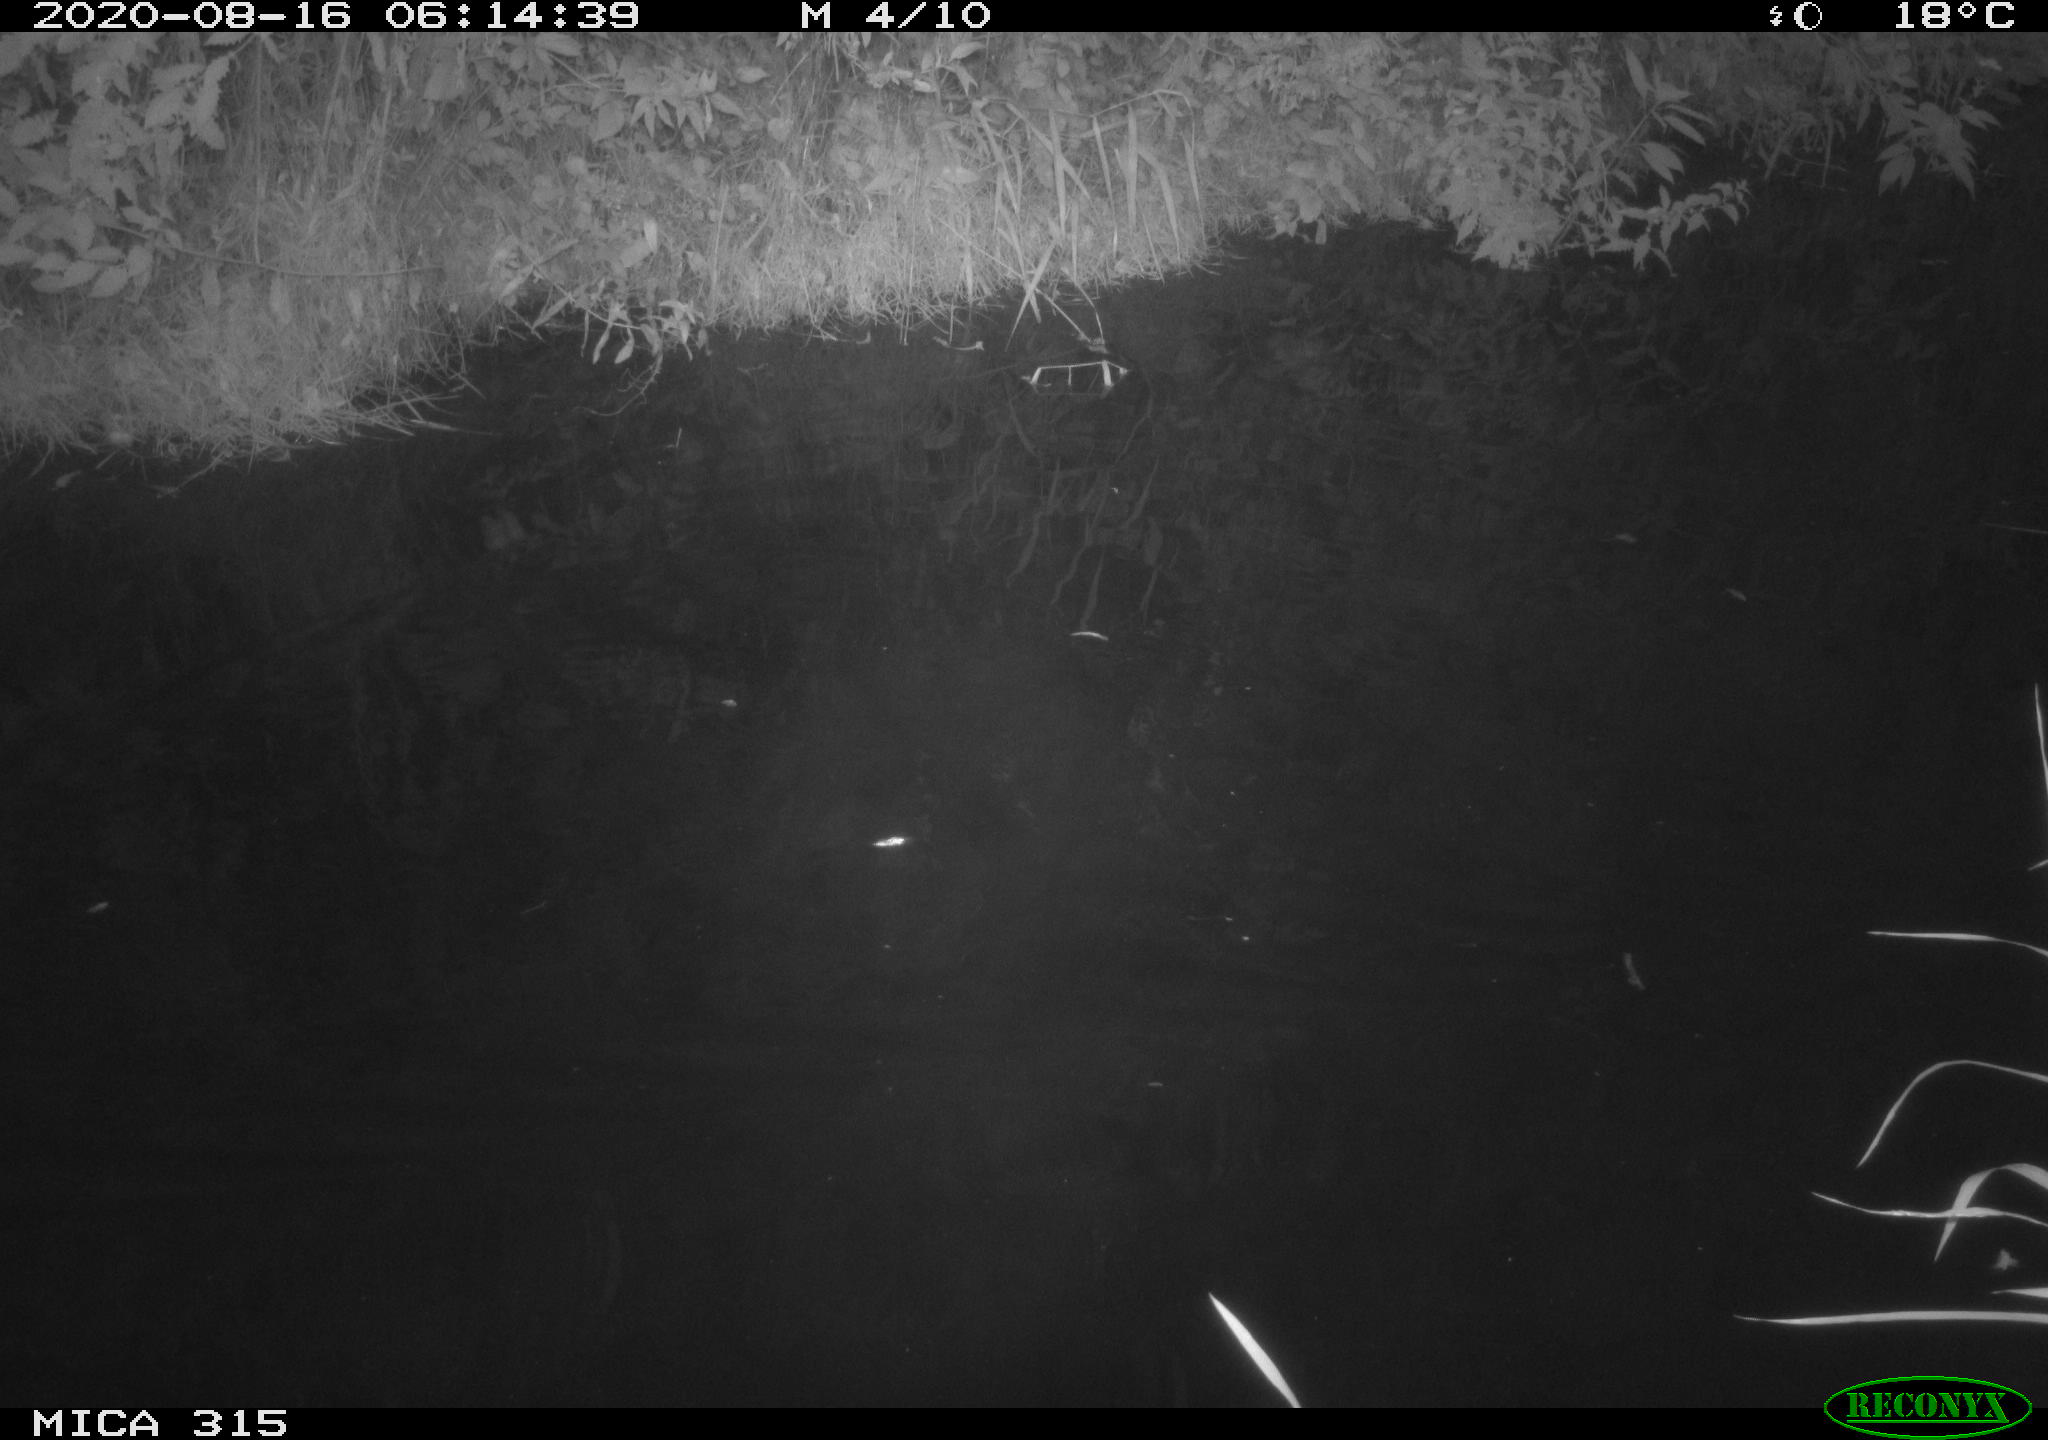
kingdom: Animalia
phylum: Chordata
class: Aves
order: Anseriformes
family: Anatidae
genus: Anas
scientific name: Anas platyrhynchos
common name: Mallard
